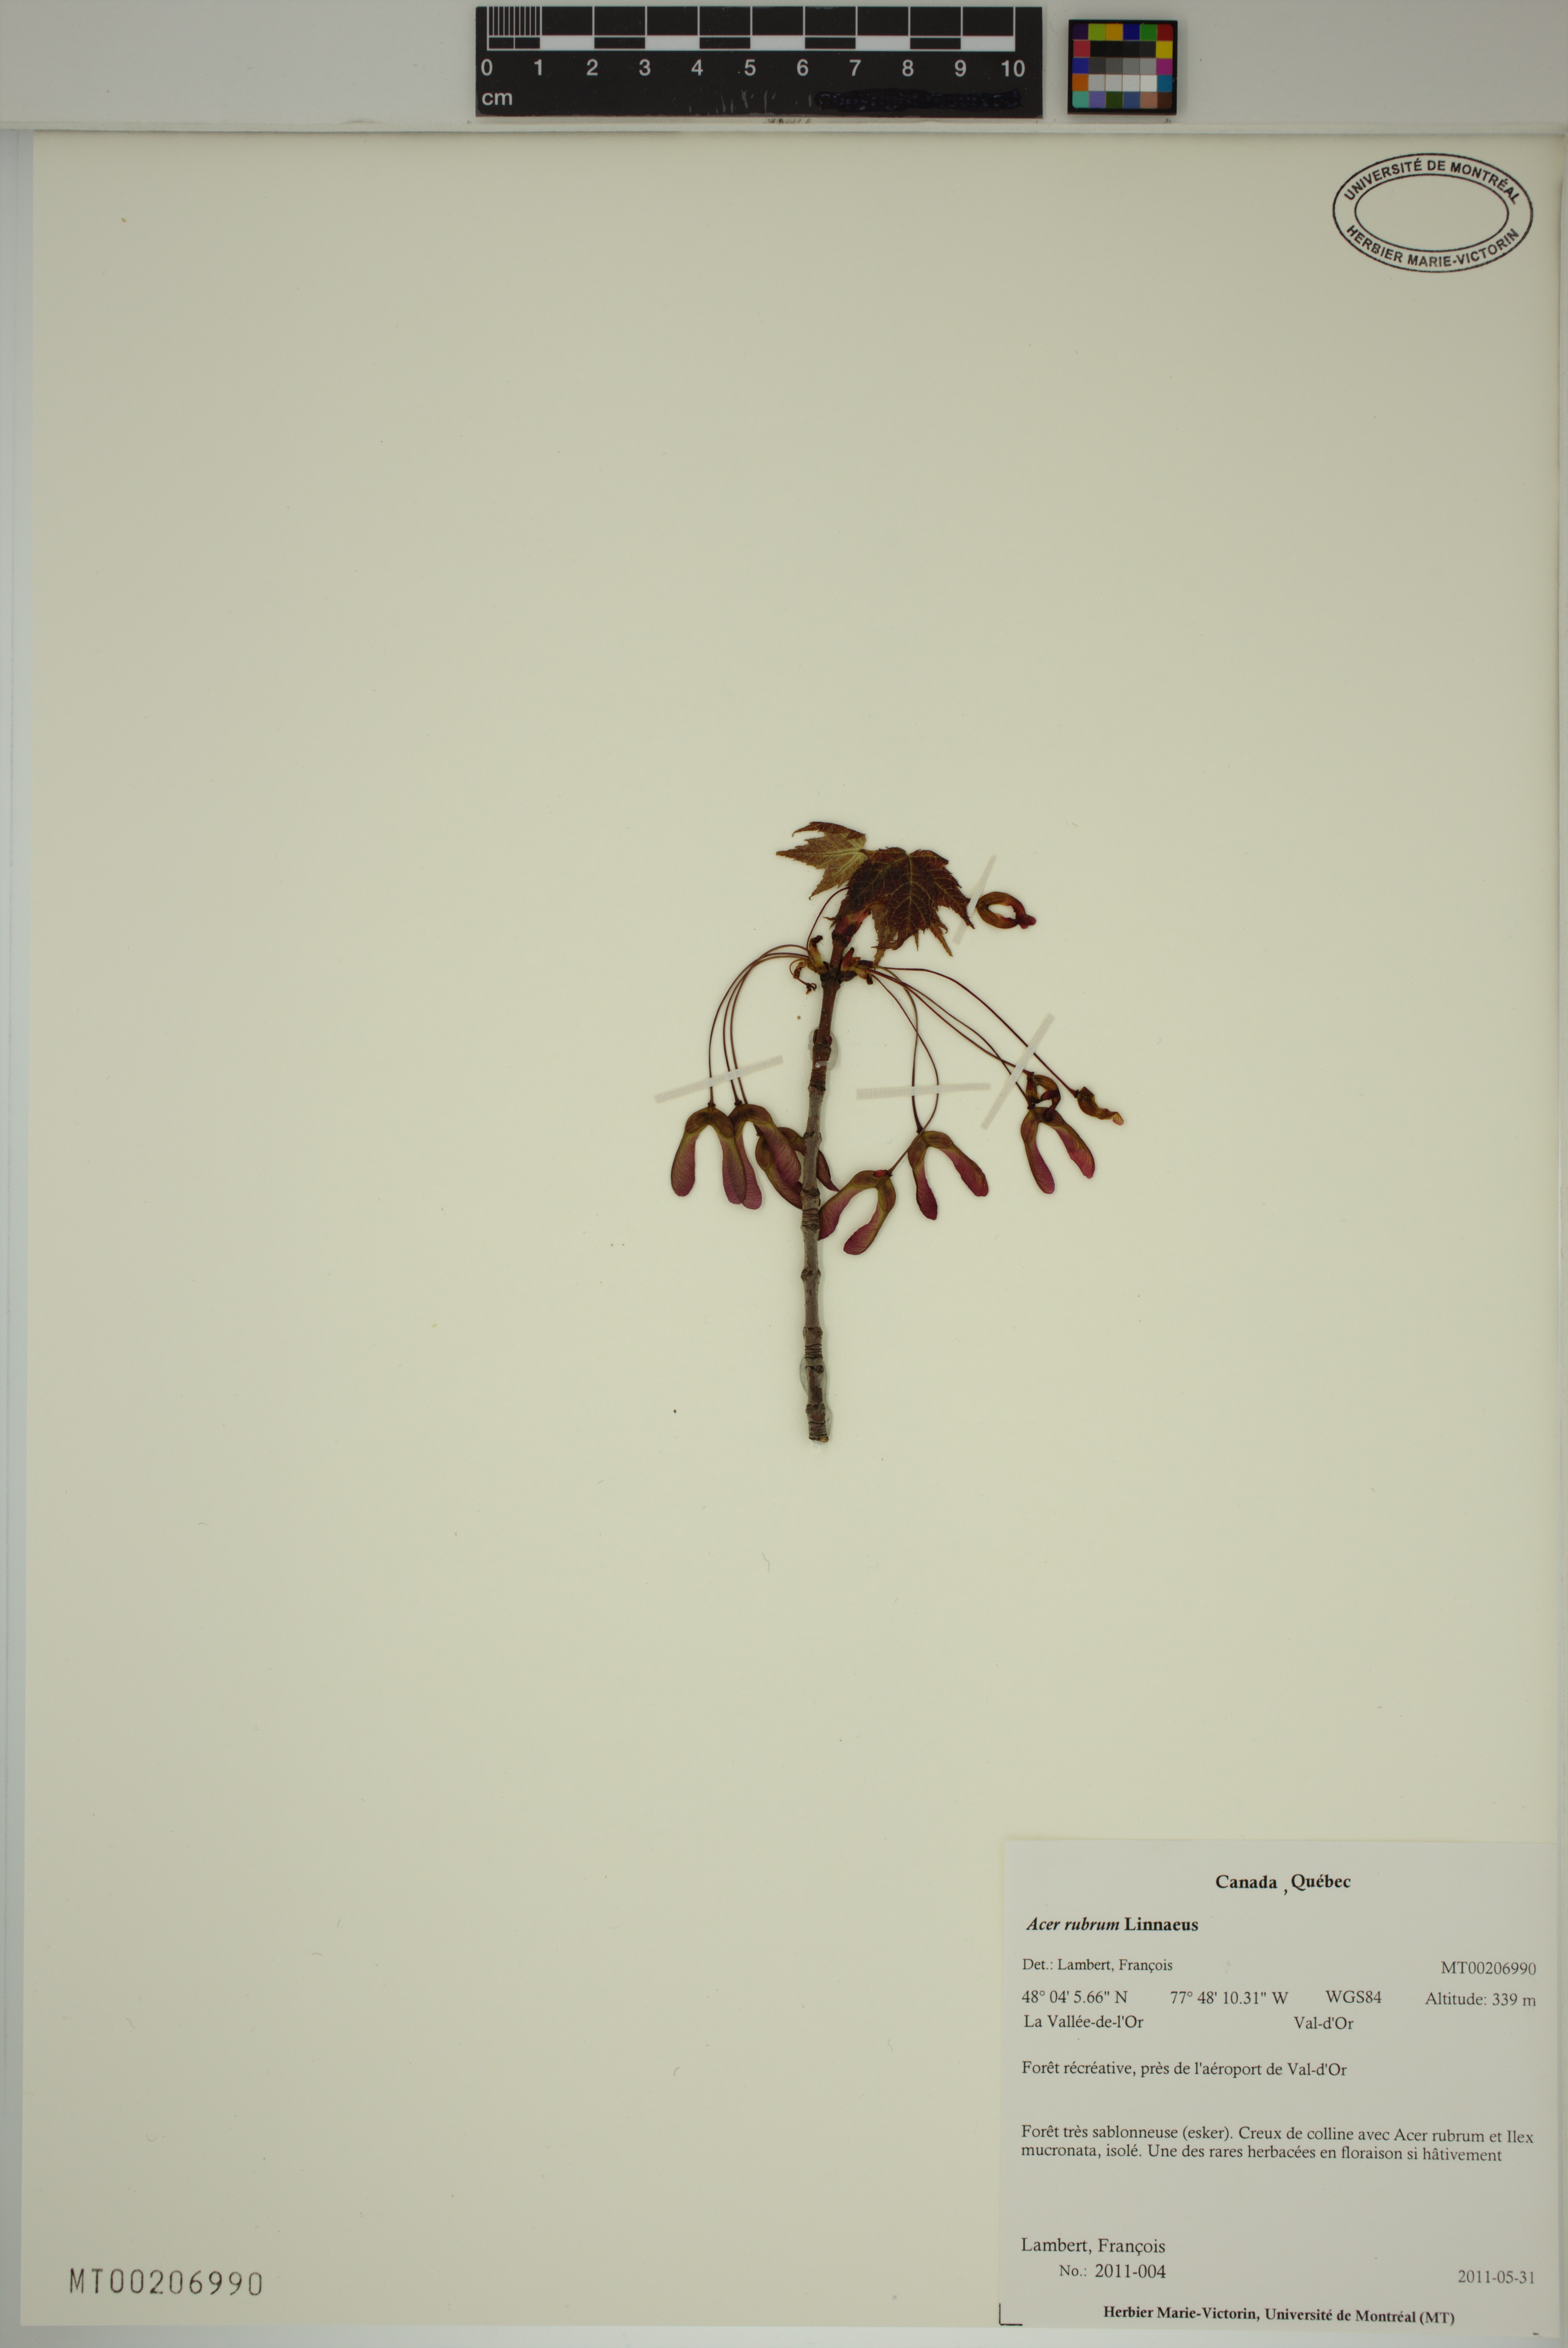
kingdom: Plantae
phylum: Tracheophyta
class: Magnoliopsida
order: Sapindales
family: Sapindaceae
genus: Acer
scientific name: Acer rubrum
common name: Red maple
